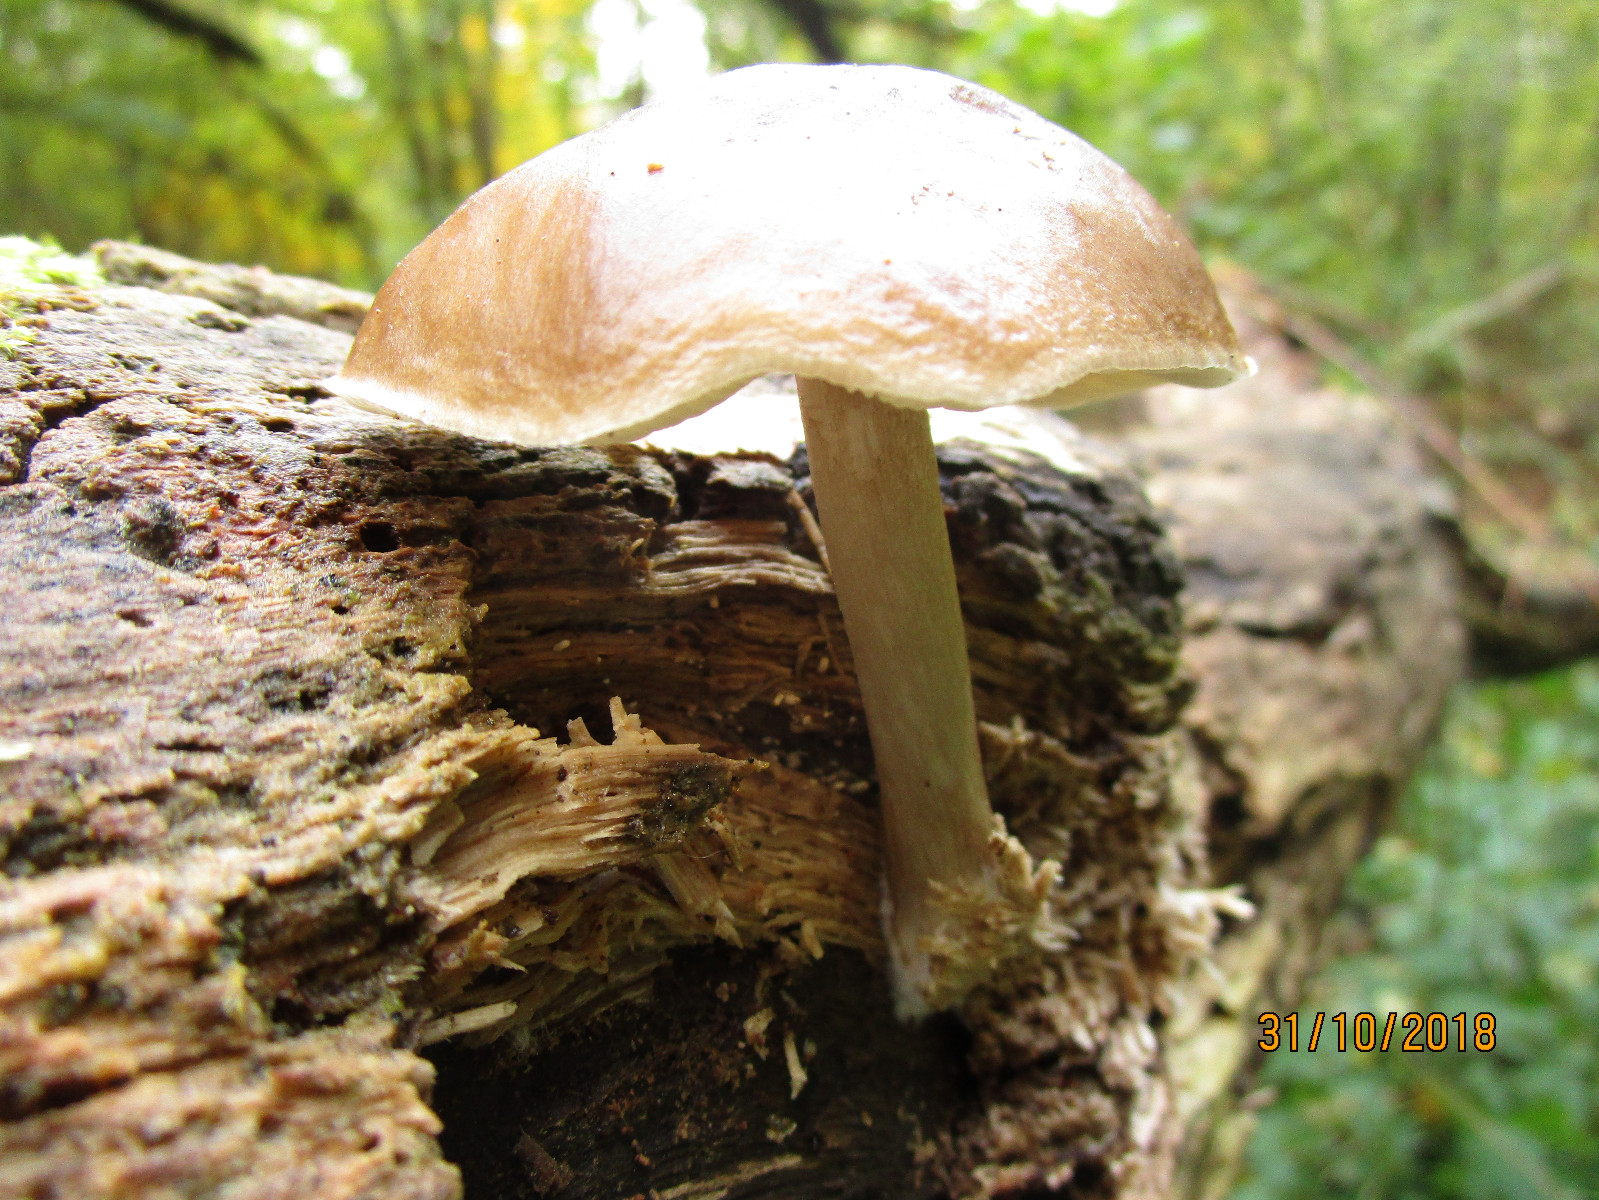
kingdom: Fungi
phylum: Basidiomycota
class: Agaricomycetes
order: Agaricales
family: Pluteaceae
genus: Pluteus
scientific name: Pluteus cervinus
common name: sodfarvet skærmhat
